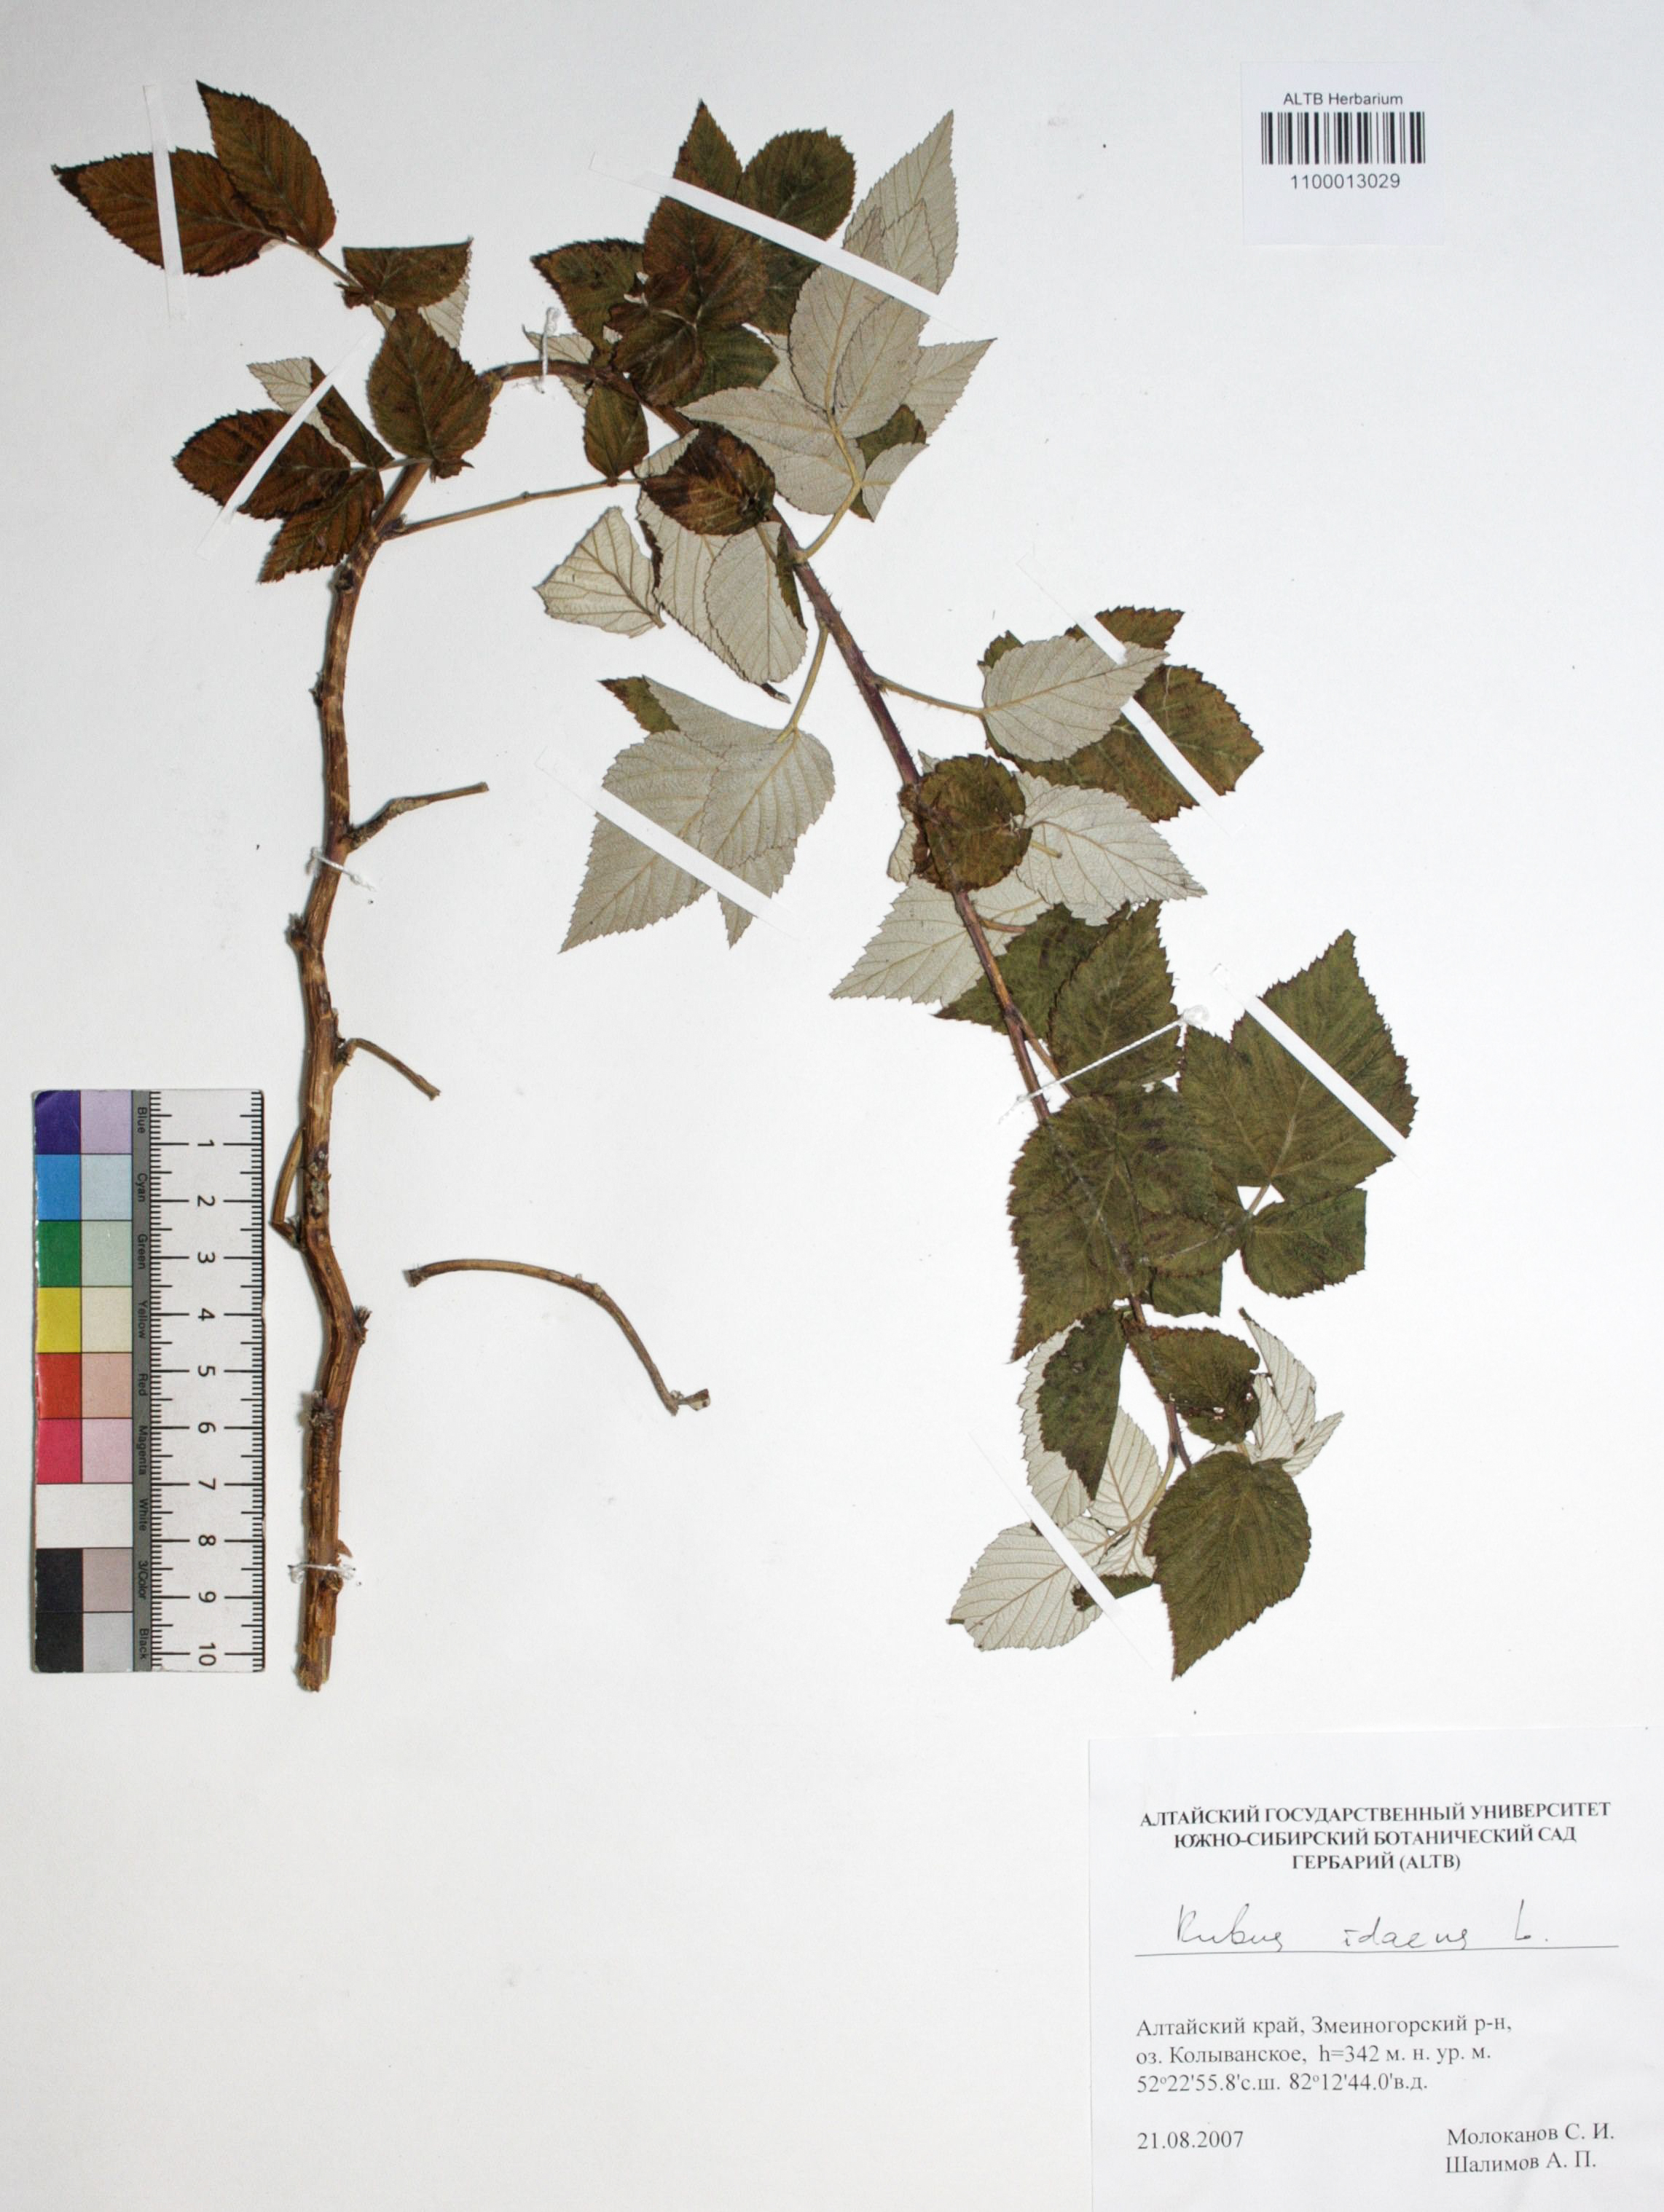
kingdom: Plantae
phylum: Tracheophyta
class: Magnoliopsida
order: Rosales
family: Rosaceae
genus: Rubus
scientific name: Rubus idaeus
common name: Raspberry
